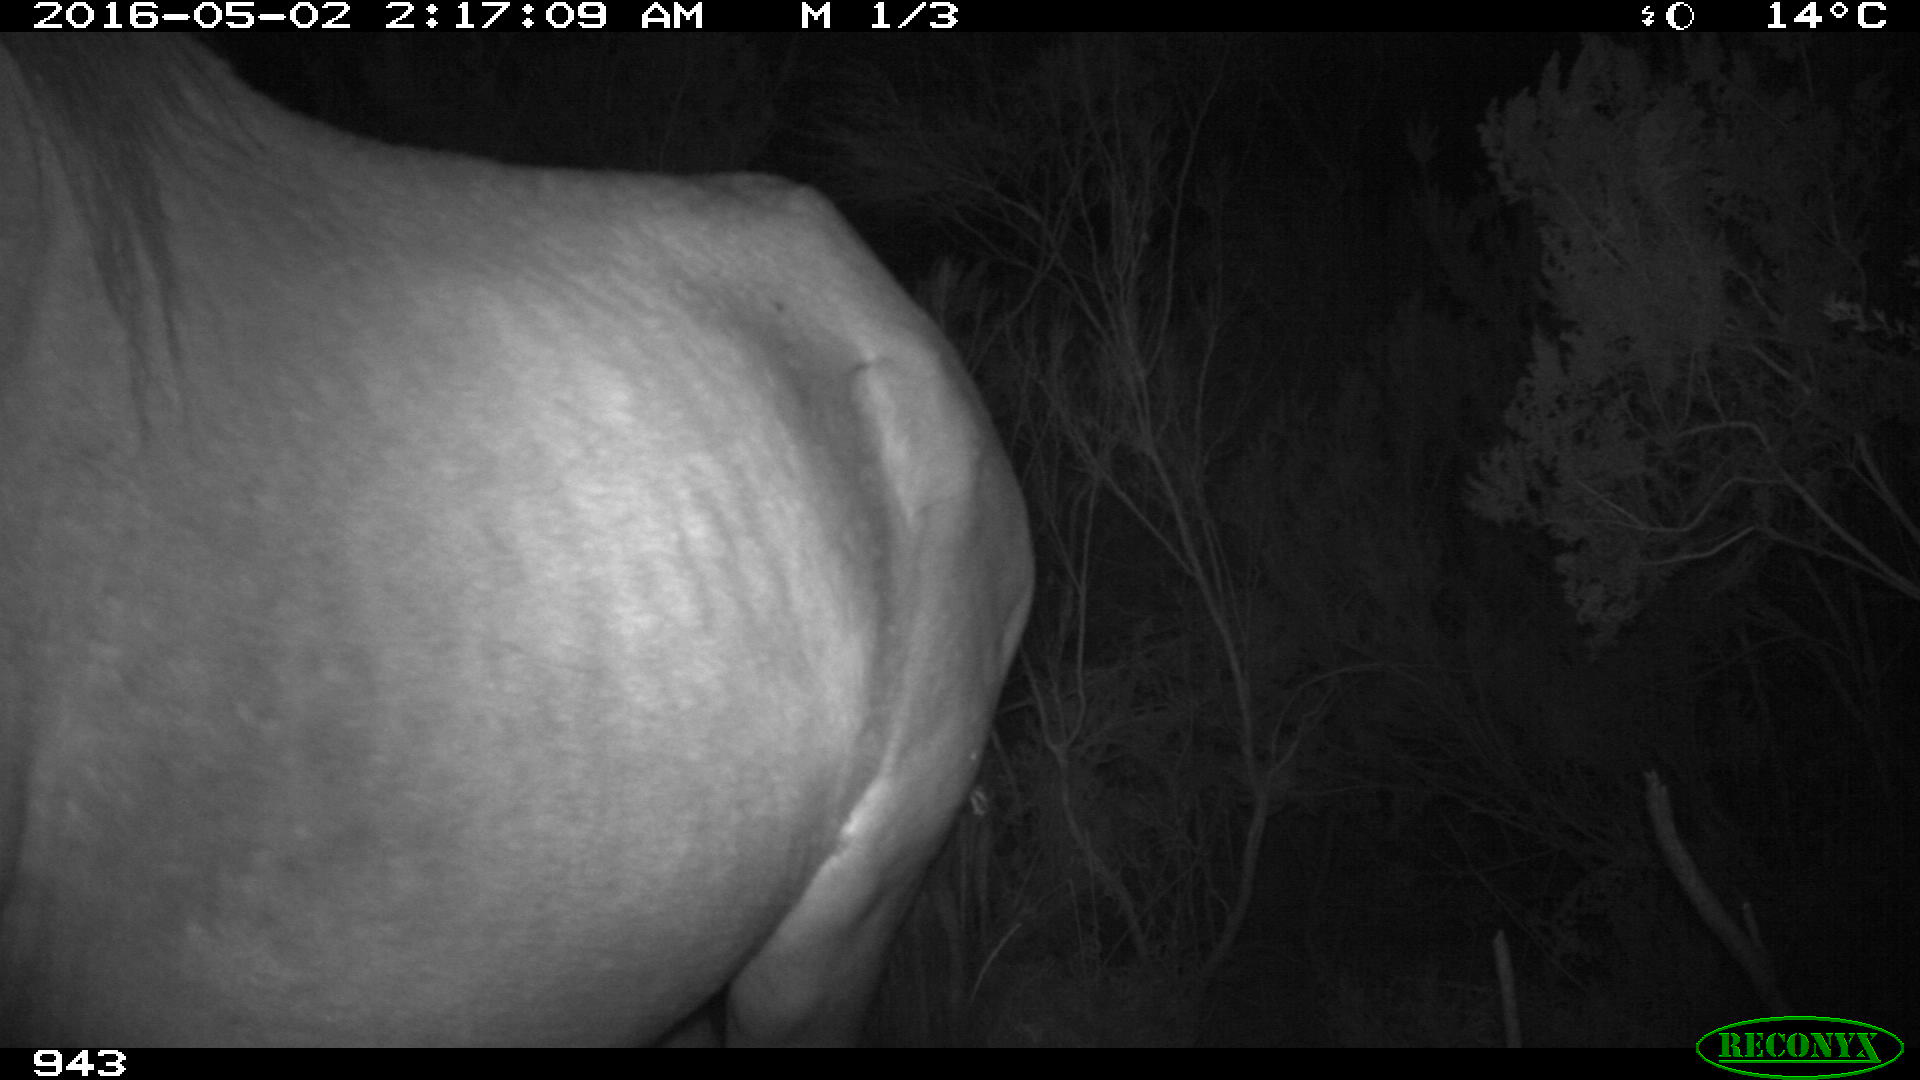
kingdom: Animalia
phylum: Chordata
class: Mammalia
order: Perissodactyla
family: Equidae
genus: Equus
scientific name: Equus caballus
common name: Horse
